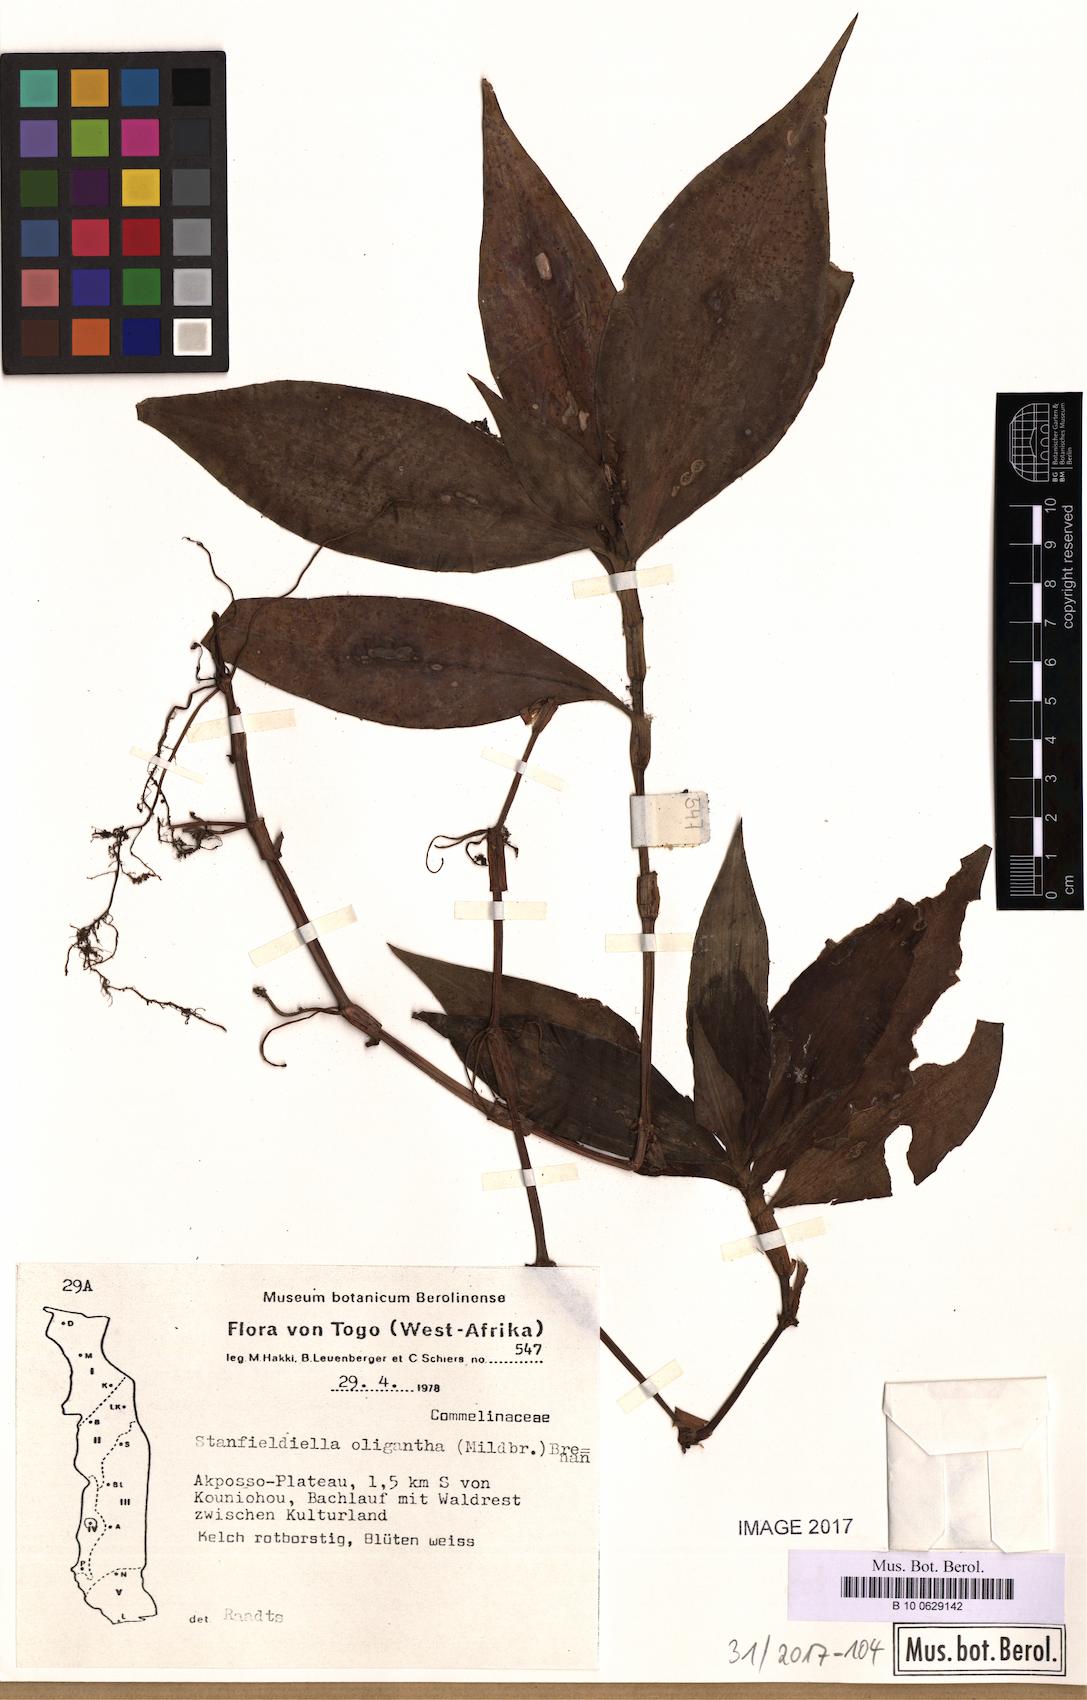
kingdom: Plantae
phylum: Tracheophyta
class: Liliopsida
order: Commelinales
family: Commelinaceae
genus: Stanfieldiella
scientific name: Stanfieldiella oligantha
